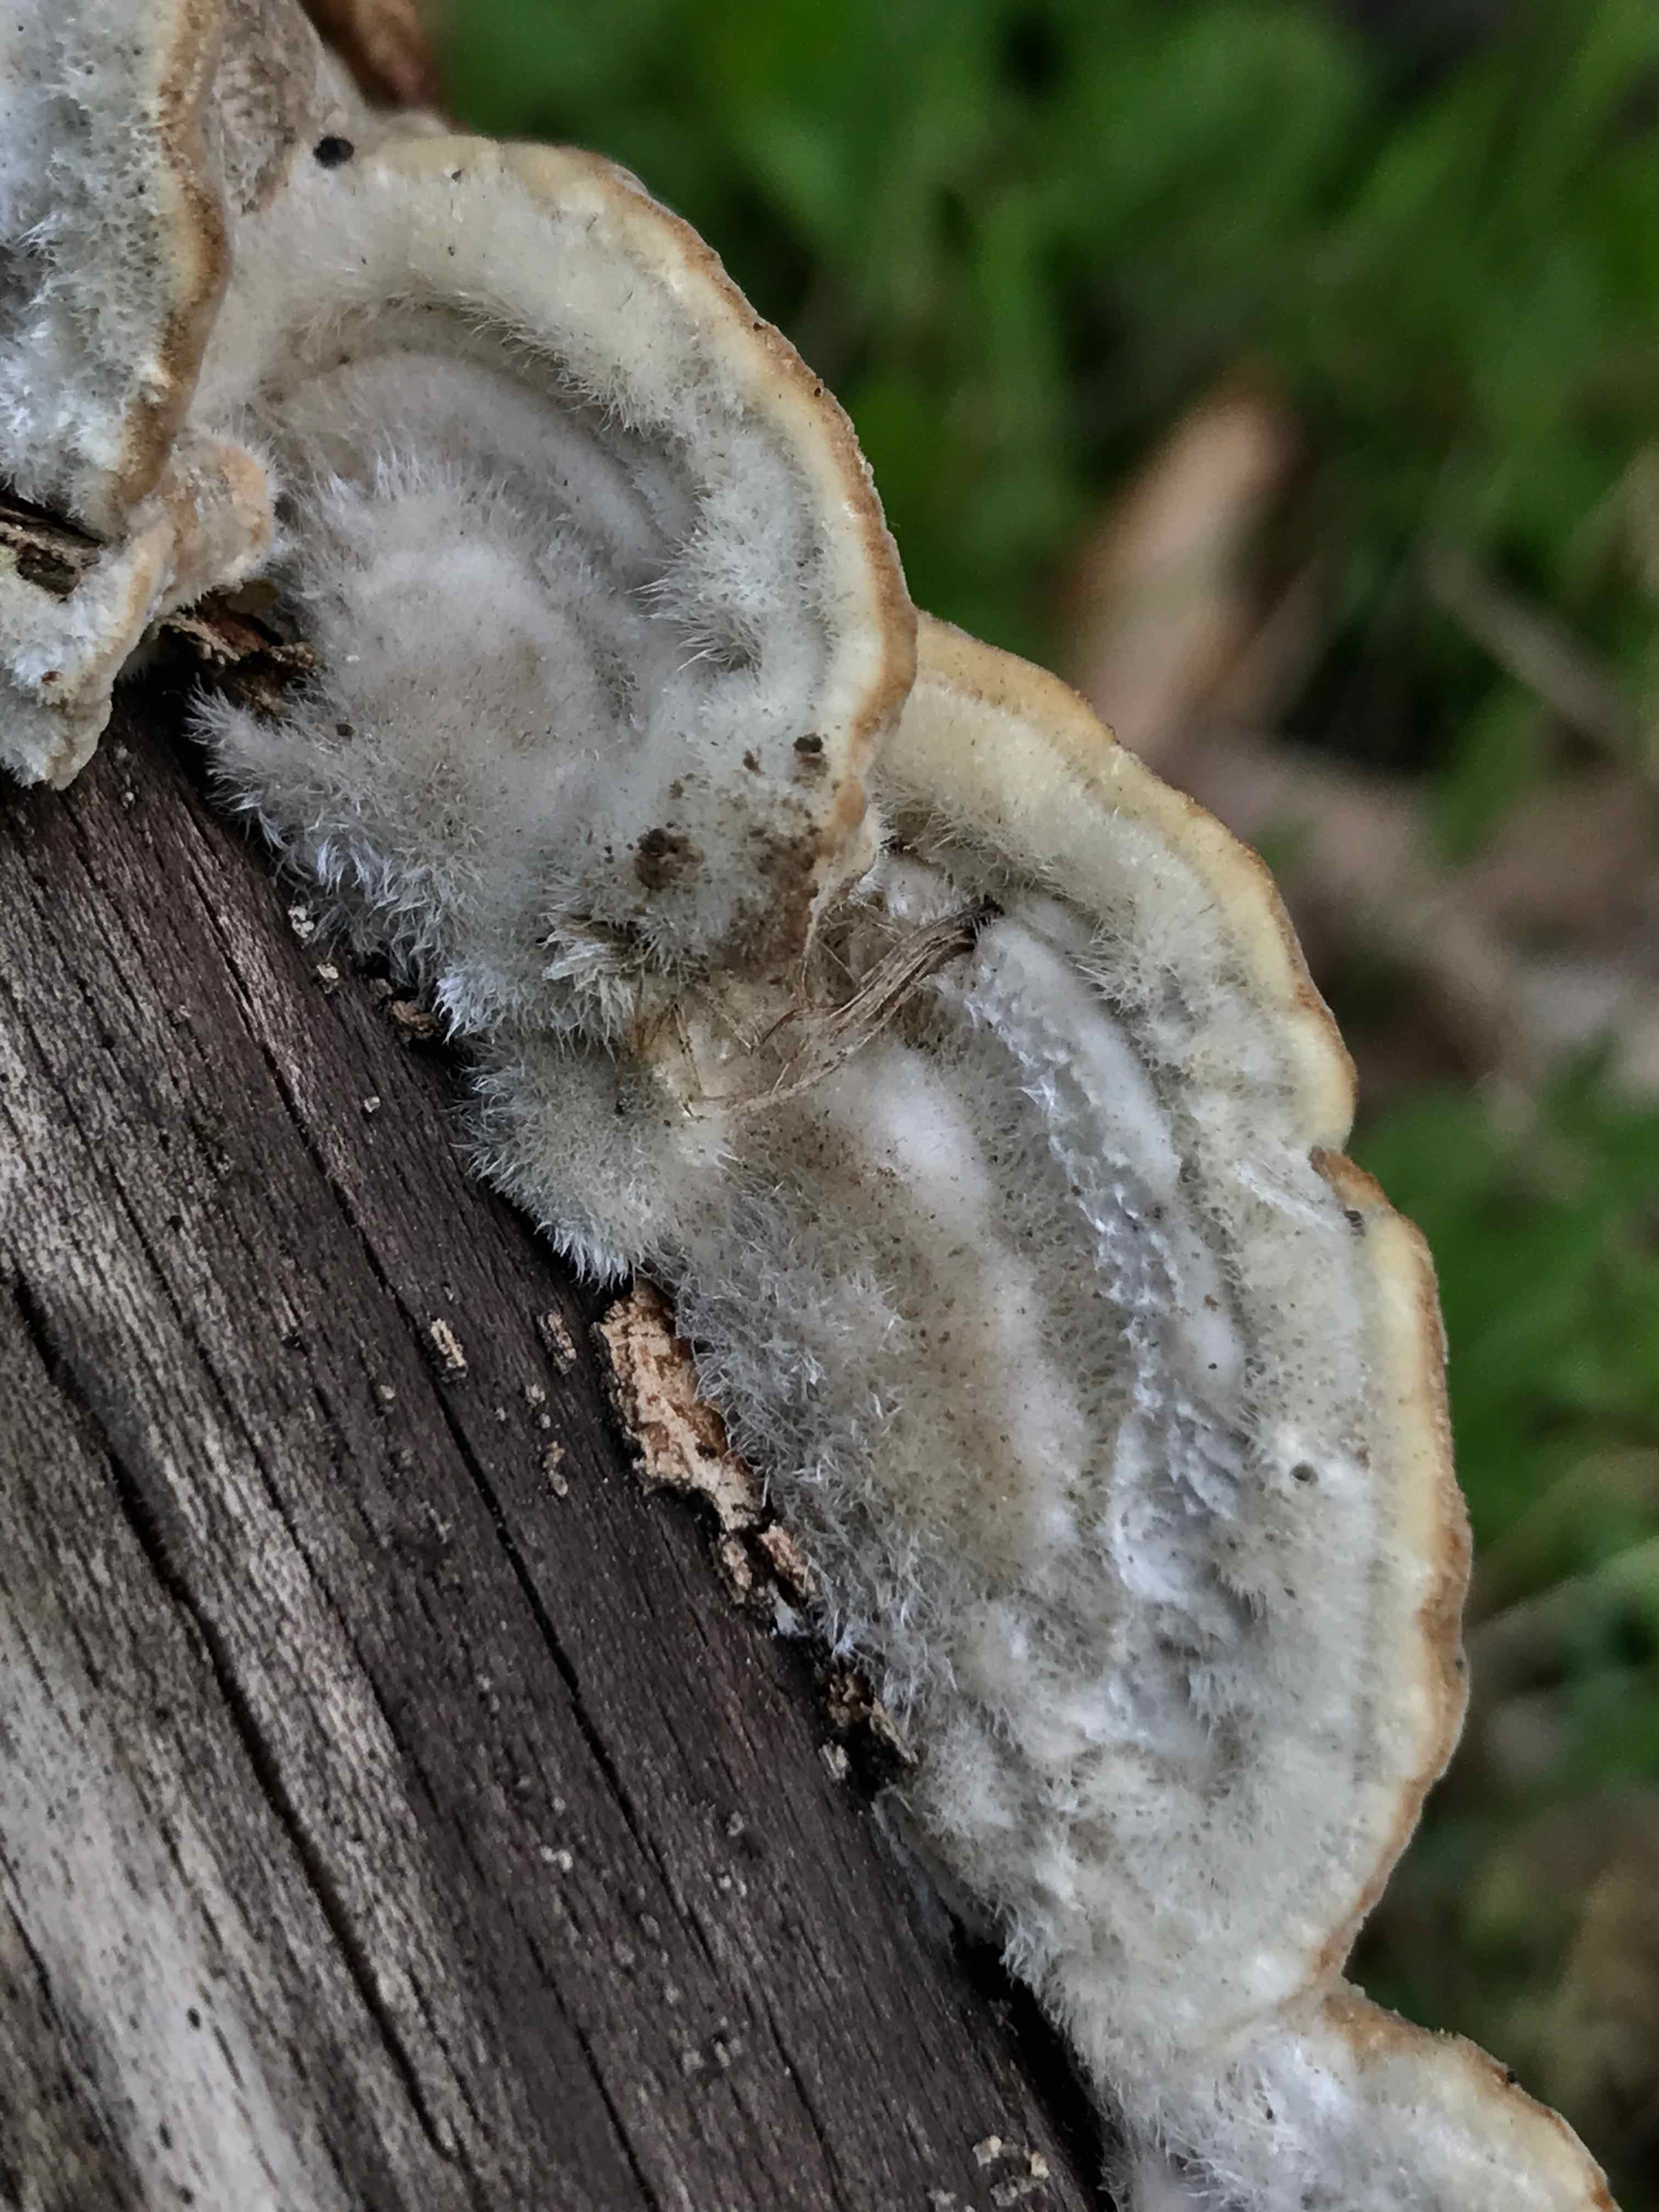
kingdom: Fungi
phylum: Basidiomycota
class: Agaricomycetes
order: Polyporales
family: Polyporaceae
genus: Trametes
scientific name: Trametes hirsuta
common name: håret læderporesvamp
